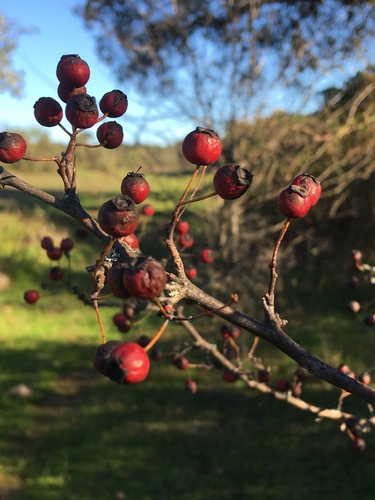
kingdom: Plantae
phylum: Tracheophyta
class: Magnoliopsida
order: Rosales
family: Rosaceae
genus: Crataegus
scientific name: Crataegus monogyna
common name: Hawthorn
